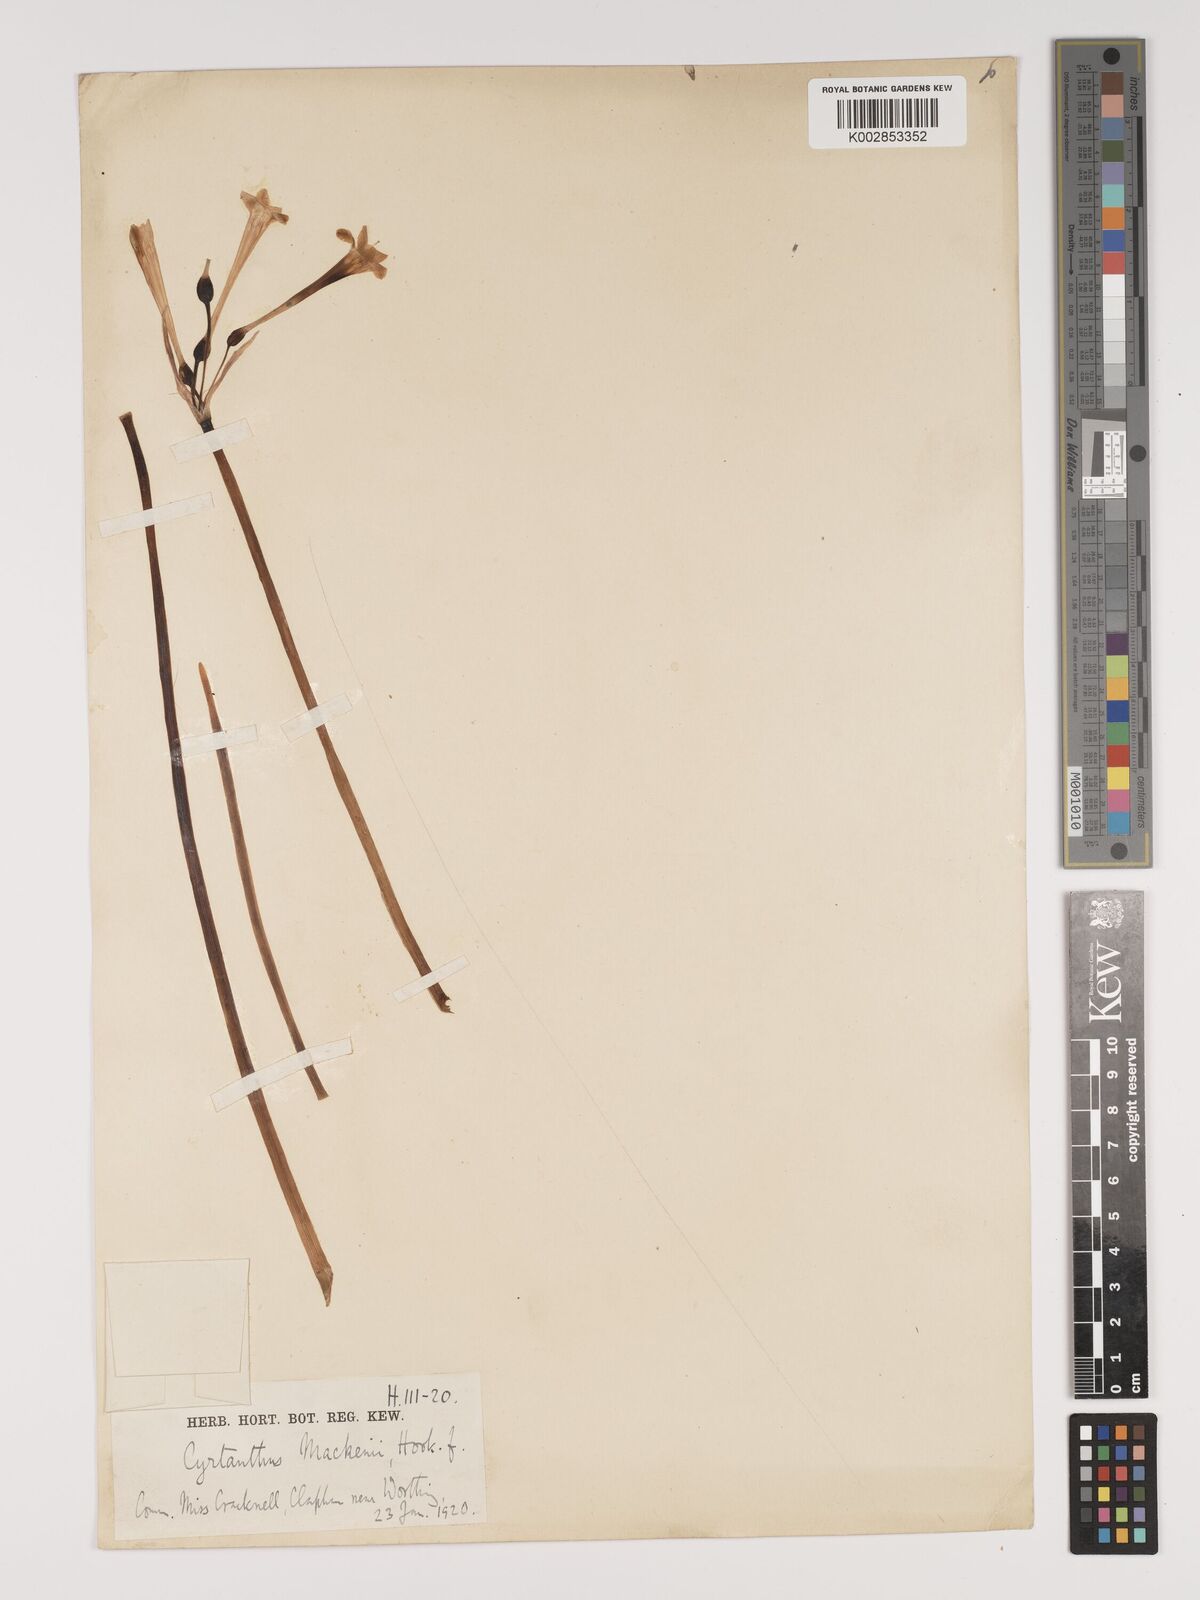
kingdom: Plantae
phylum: Tracheophyta
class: Liliopsida
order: Asparagales
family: Amaryllidaceae
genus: Cyrtanthus
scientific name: Cyrtanthus mackenii
